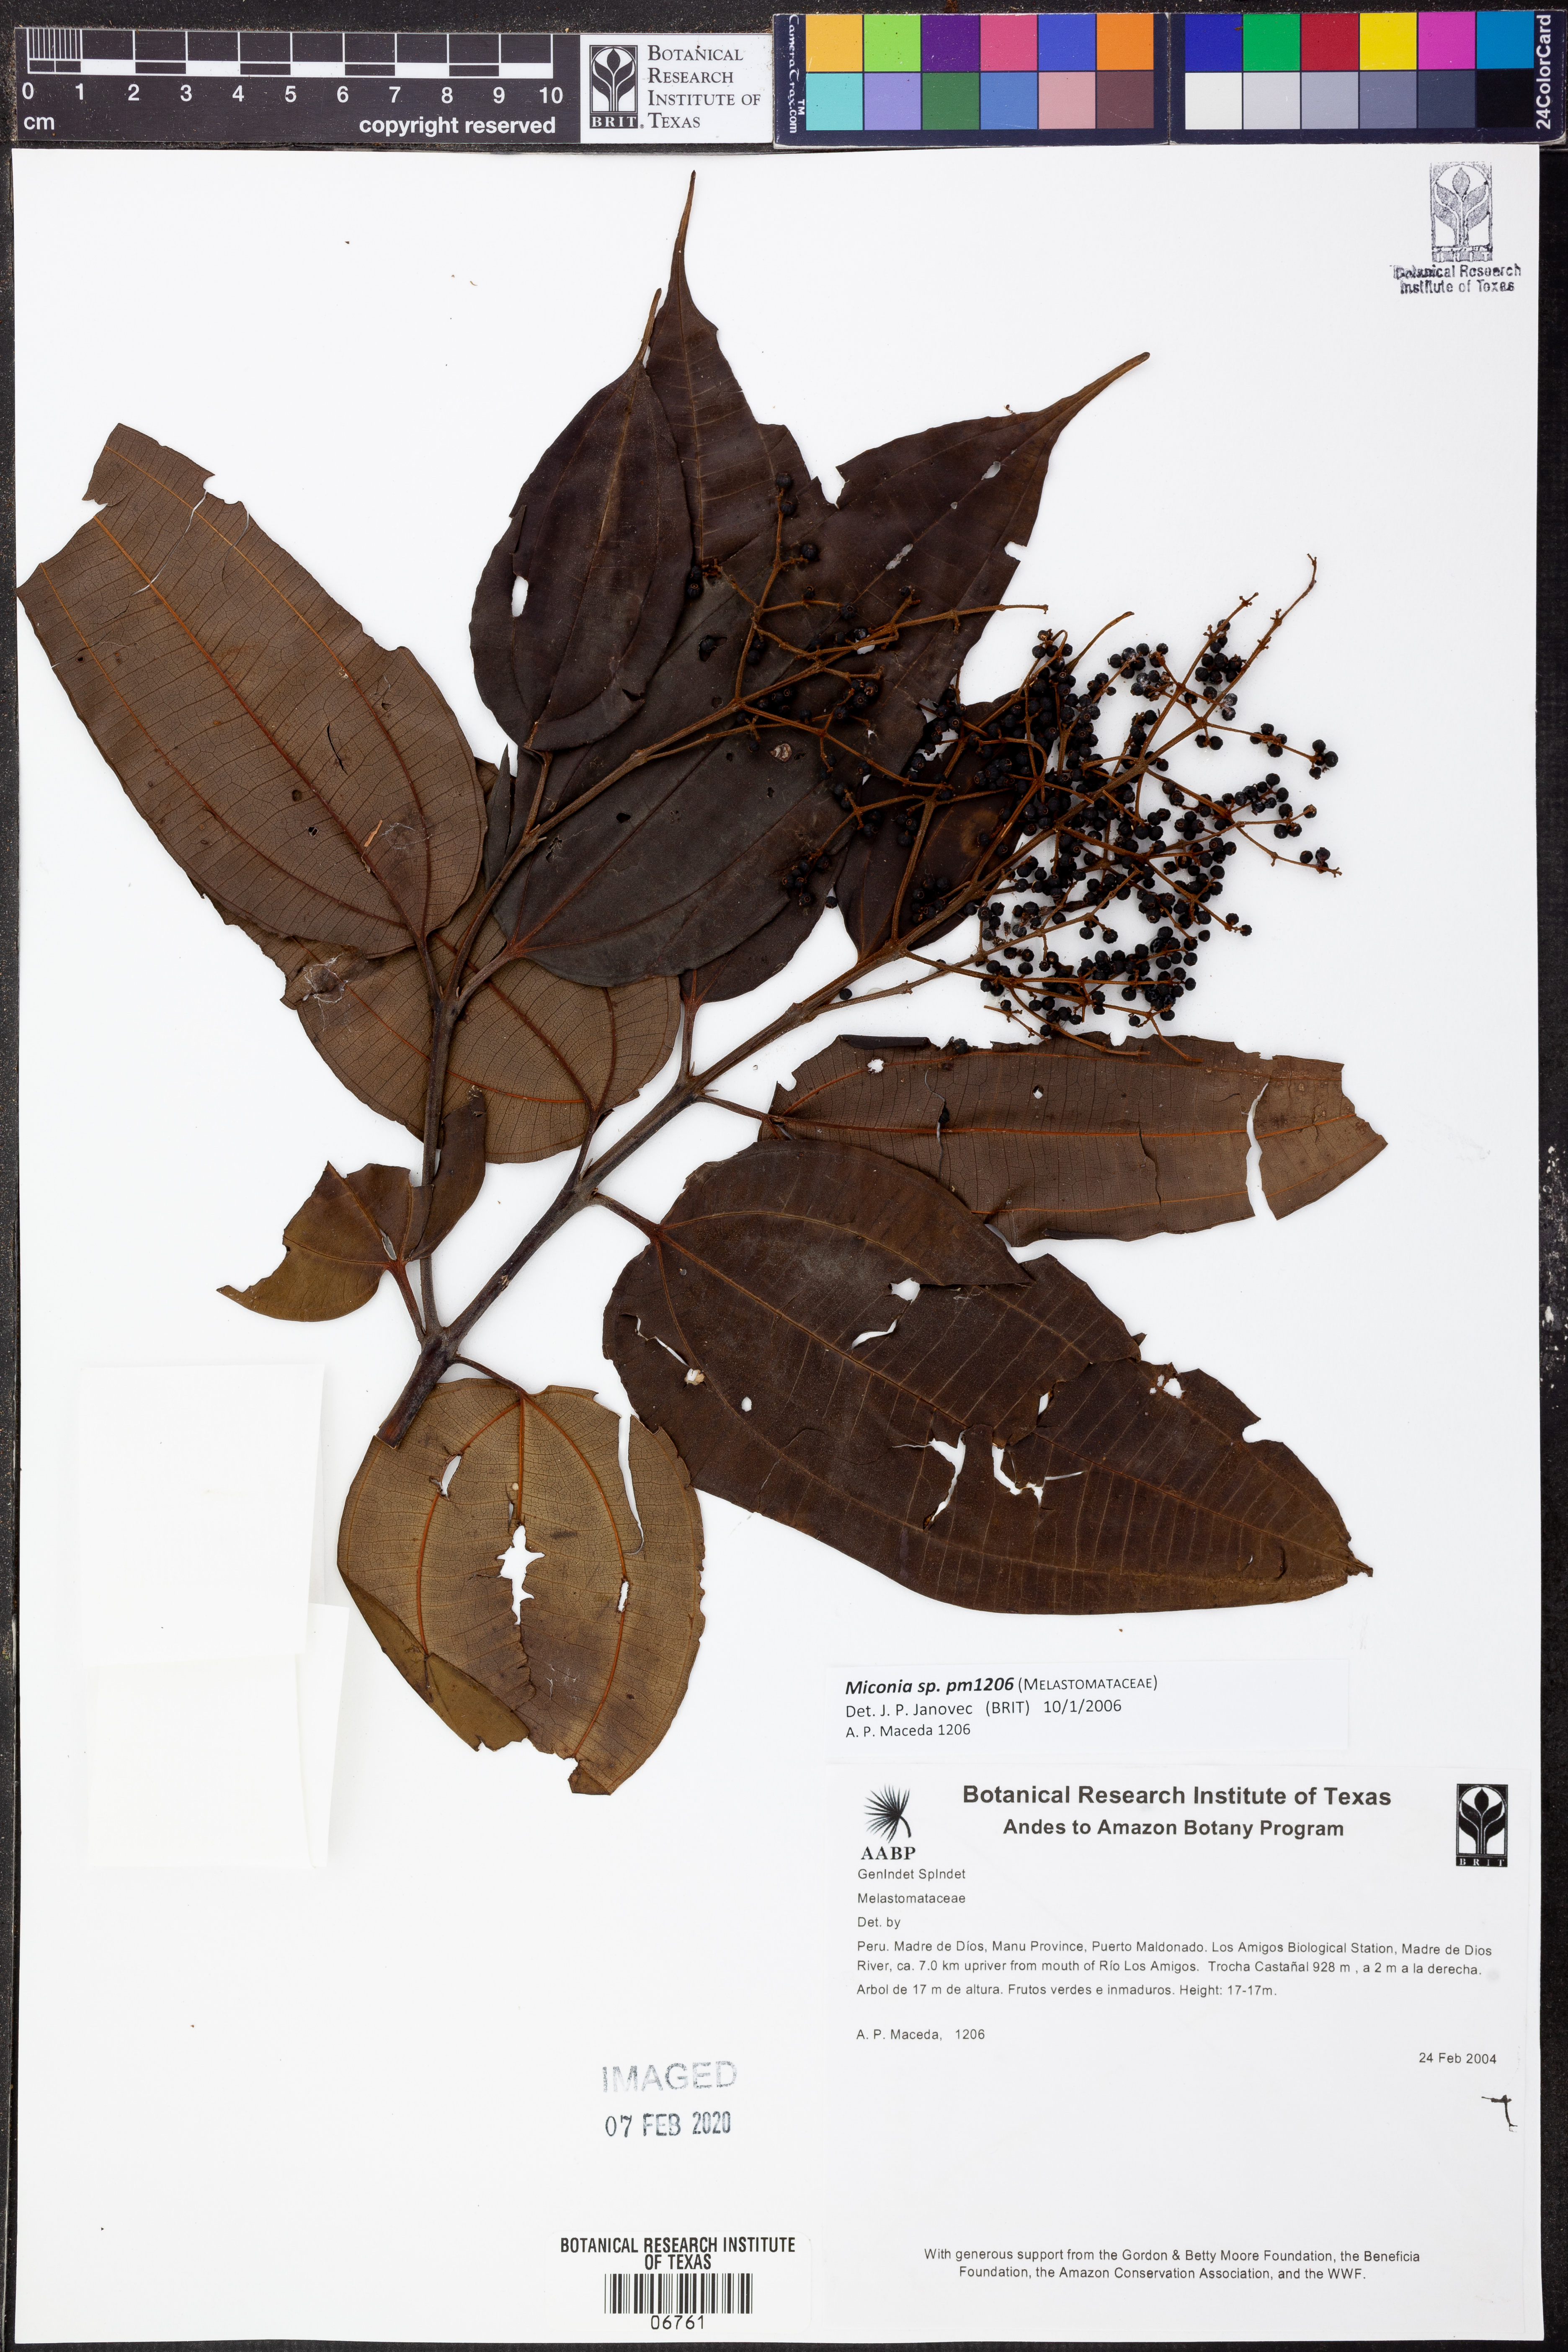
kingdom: Plantae
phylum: Tracheophyta
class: Magnoliopsida
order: Myrtales
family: Melastomataceae
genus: Miconia
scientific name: Miconia
